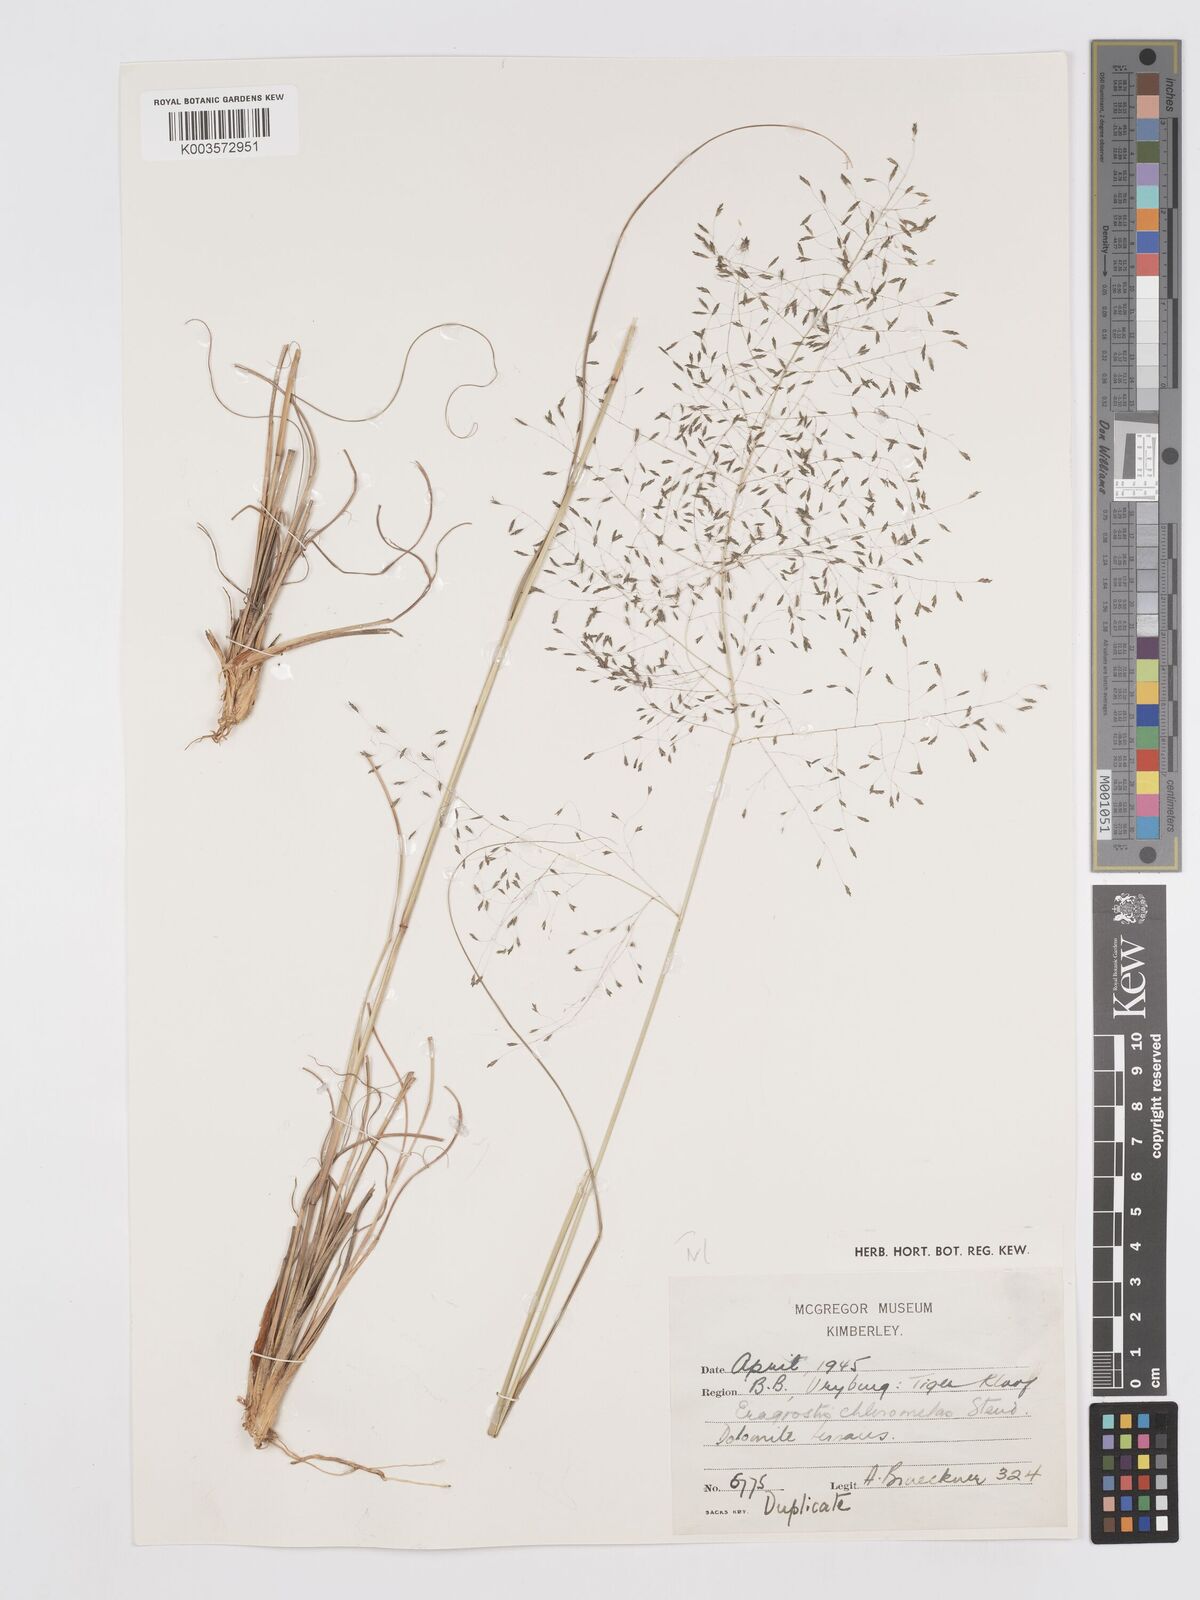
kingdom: Plantae
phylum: Tracheophyta
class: Liliopsida
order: Poales
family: Poaceae
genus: Eragrostis
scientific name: Eragrostis curvula
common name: African love-grass
